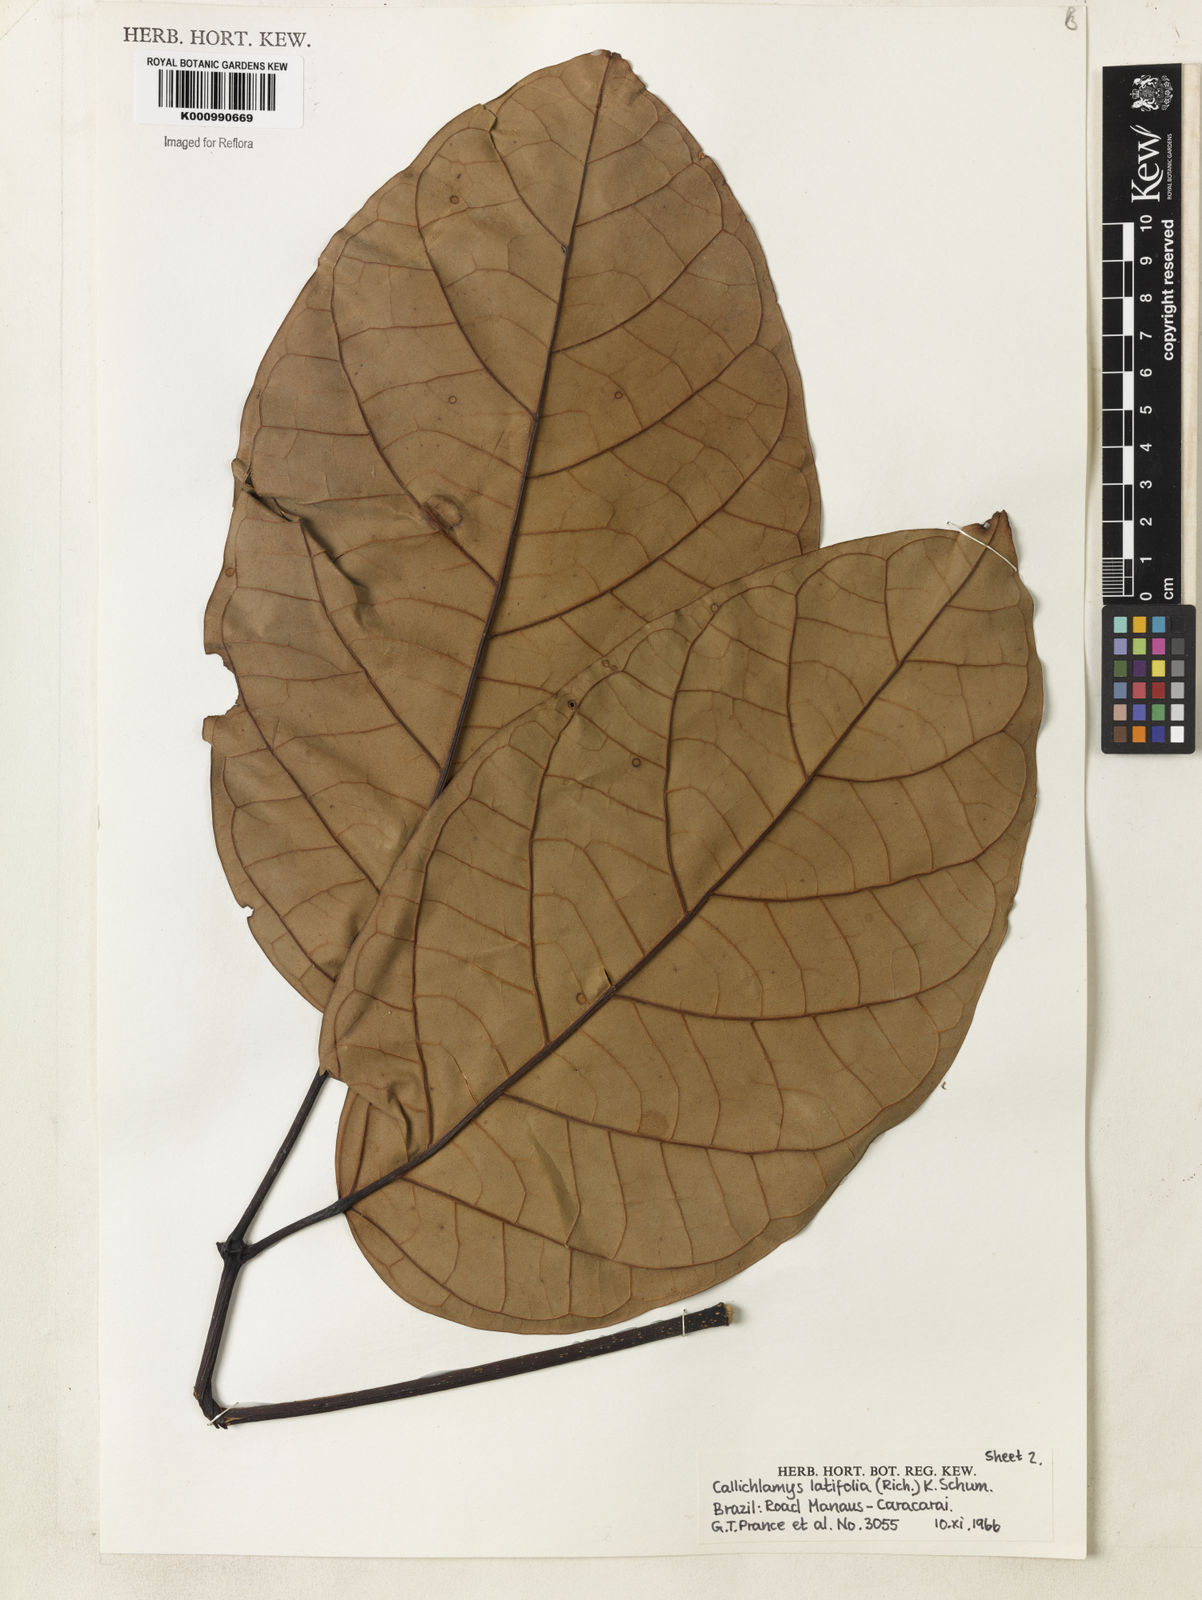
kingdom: Plantae
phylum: Tracheophyta
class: Magnoliopsida
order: Lamiales
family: Bignoniaceae
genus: Callichlamys
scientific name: Callichlamys latifolia
